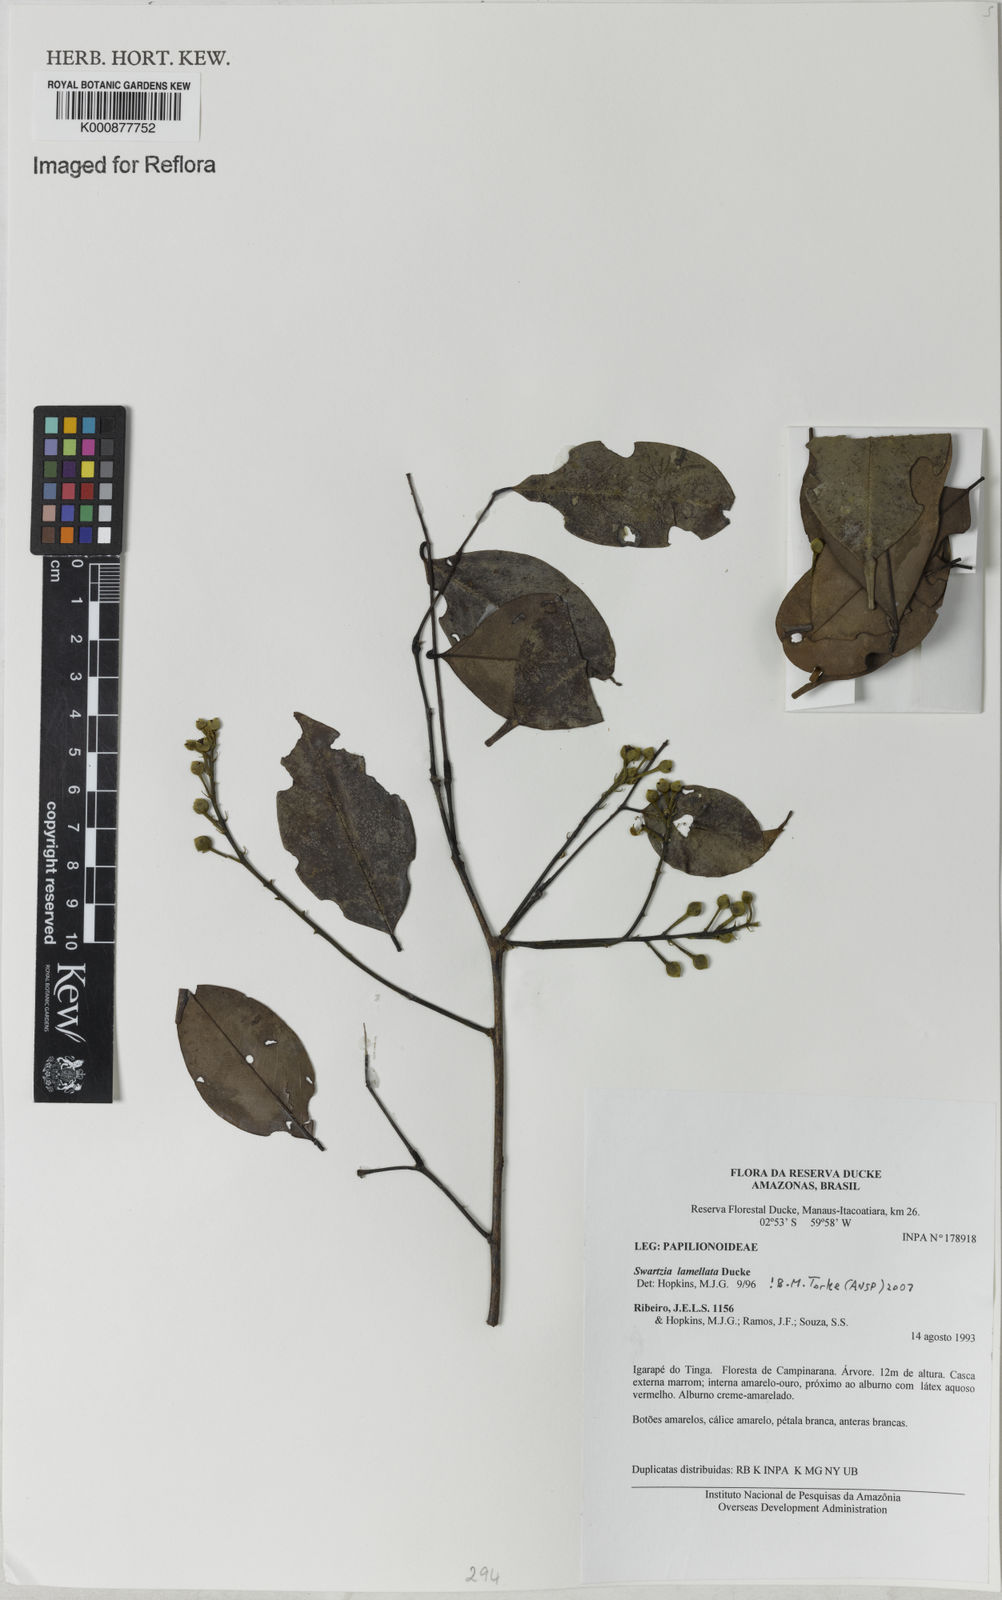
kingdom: Plantae
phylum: Tracheophyta
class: Magnoliopsida
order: Fabales
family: Fabaceae
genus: Swartzia
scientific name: Swartzia lamellata
